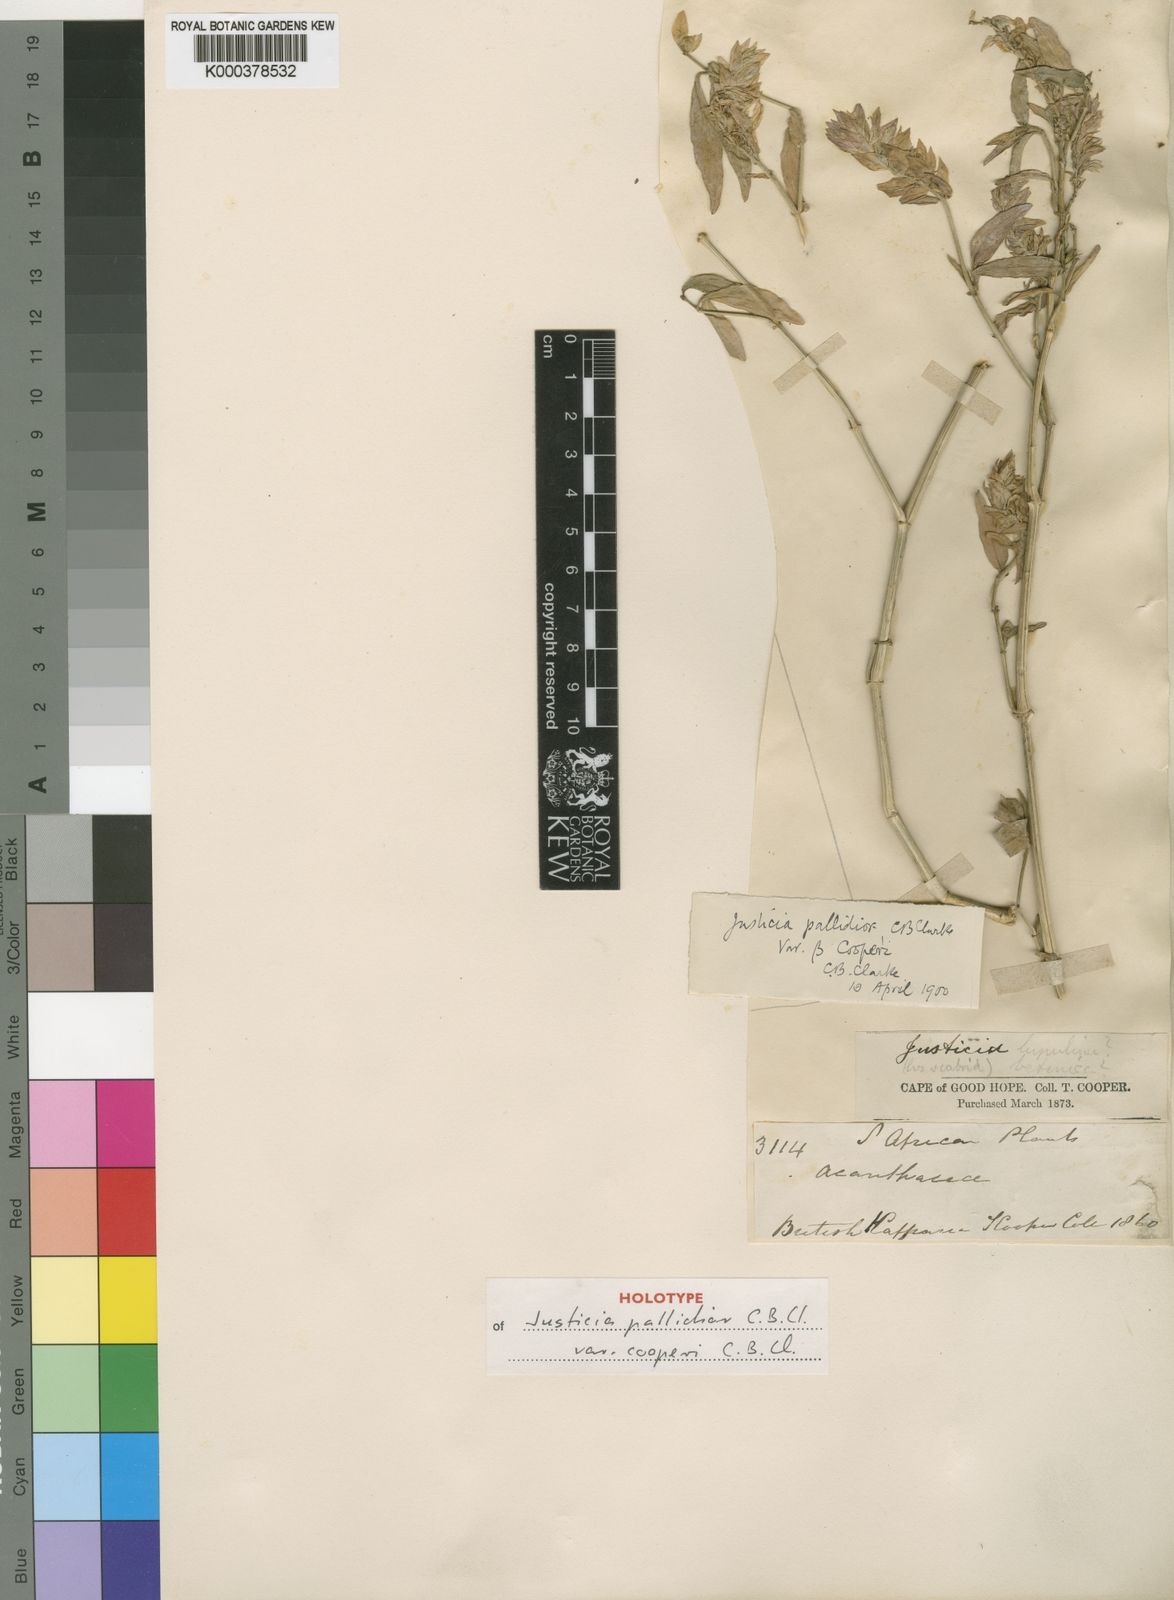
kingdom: Plantae
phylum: Tracheophyta
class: Magnoliopsida
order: Lamiales
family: Acanthaceae
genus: Nicoteba
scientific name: Nicoteba betonica
